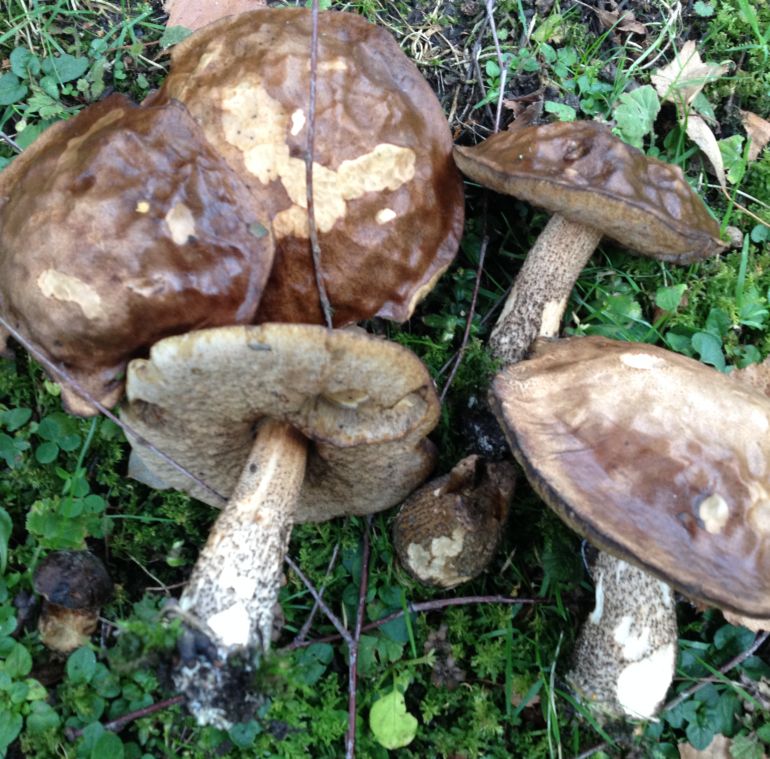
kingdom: Fungi
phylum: Basidiomycota
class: Agaricomycetes
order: Boletales
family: Boletaceae
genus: Leccinum
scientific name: Leccinum scabrum
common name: brun skælrørhat
